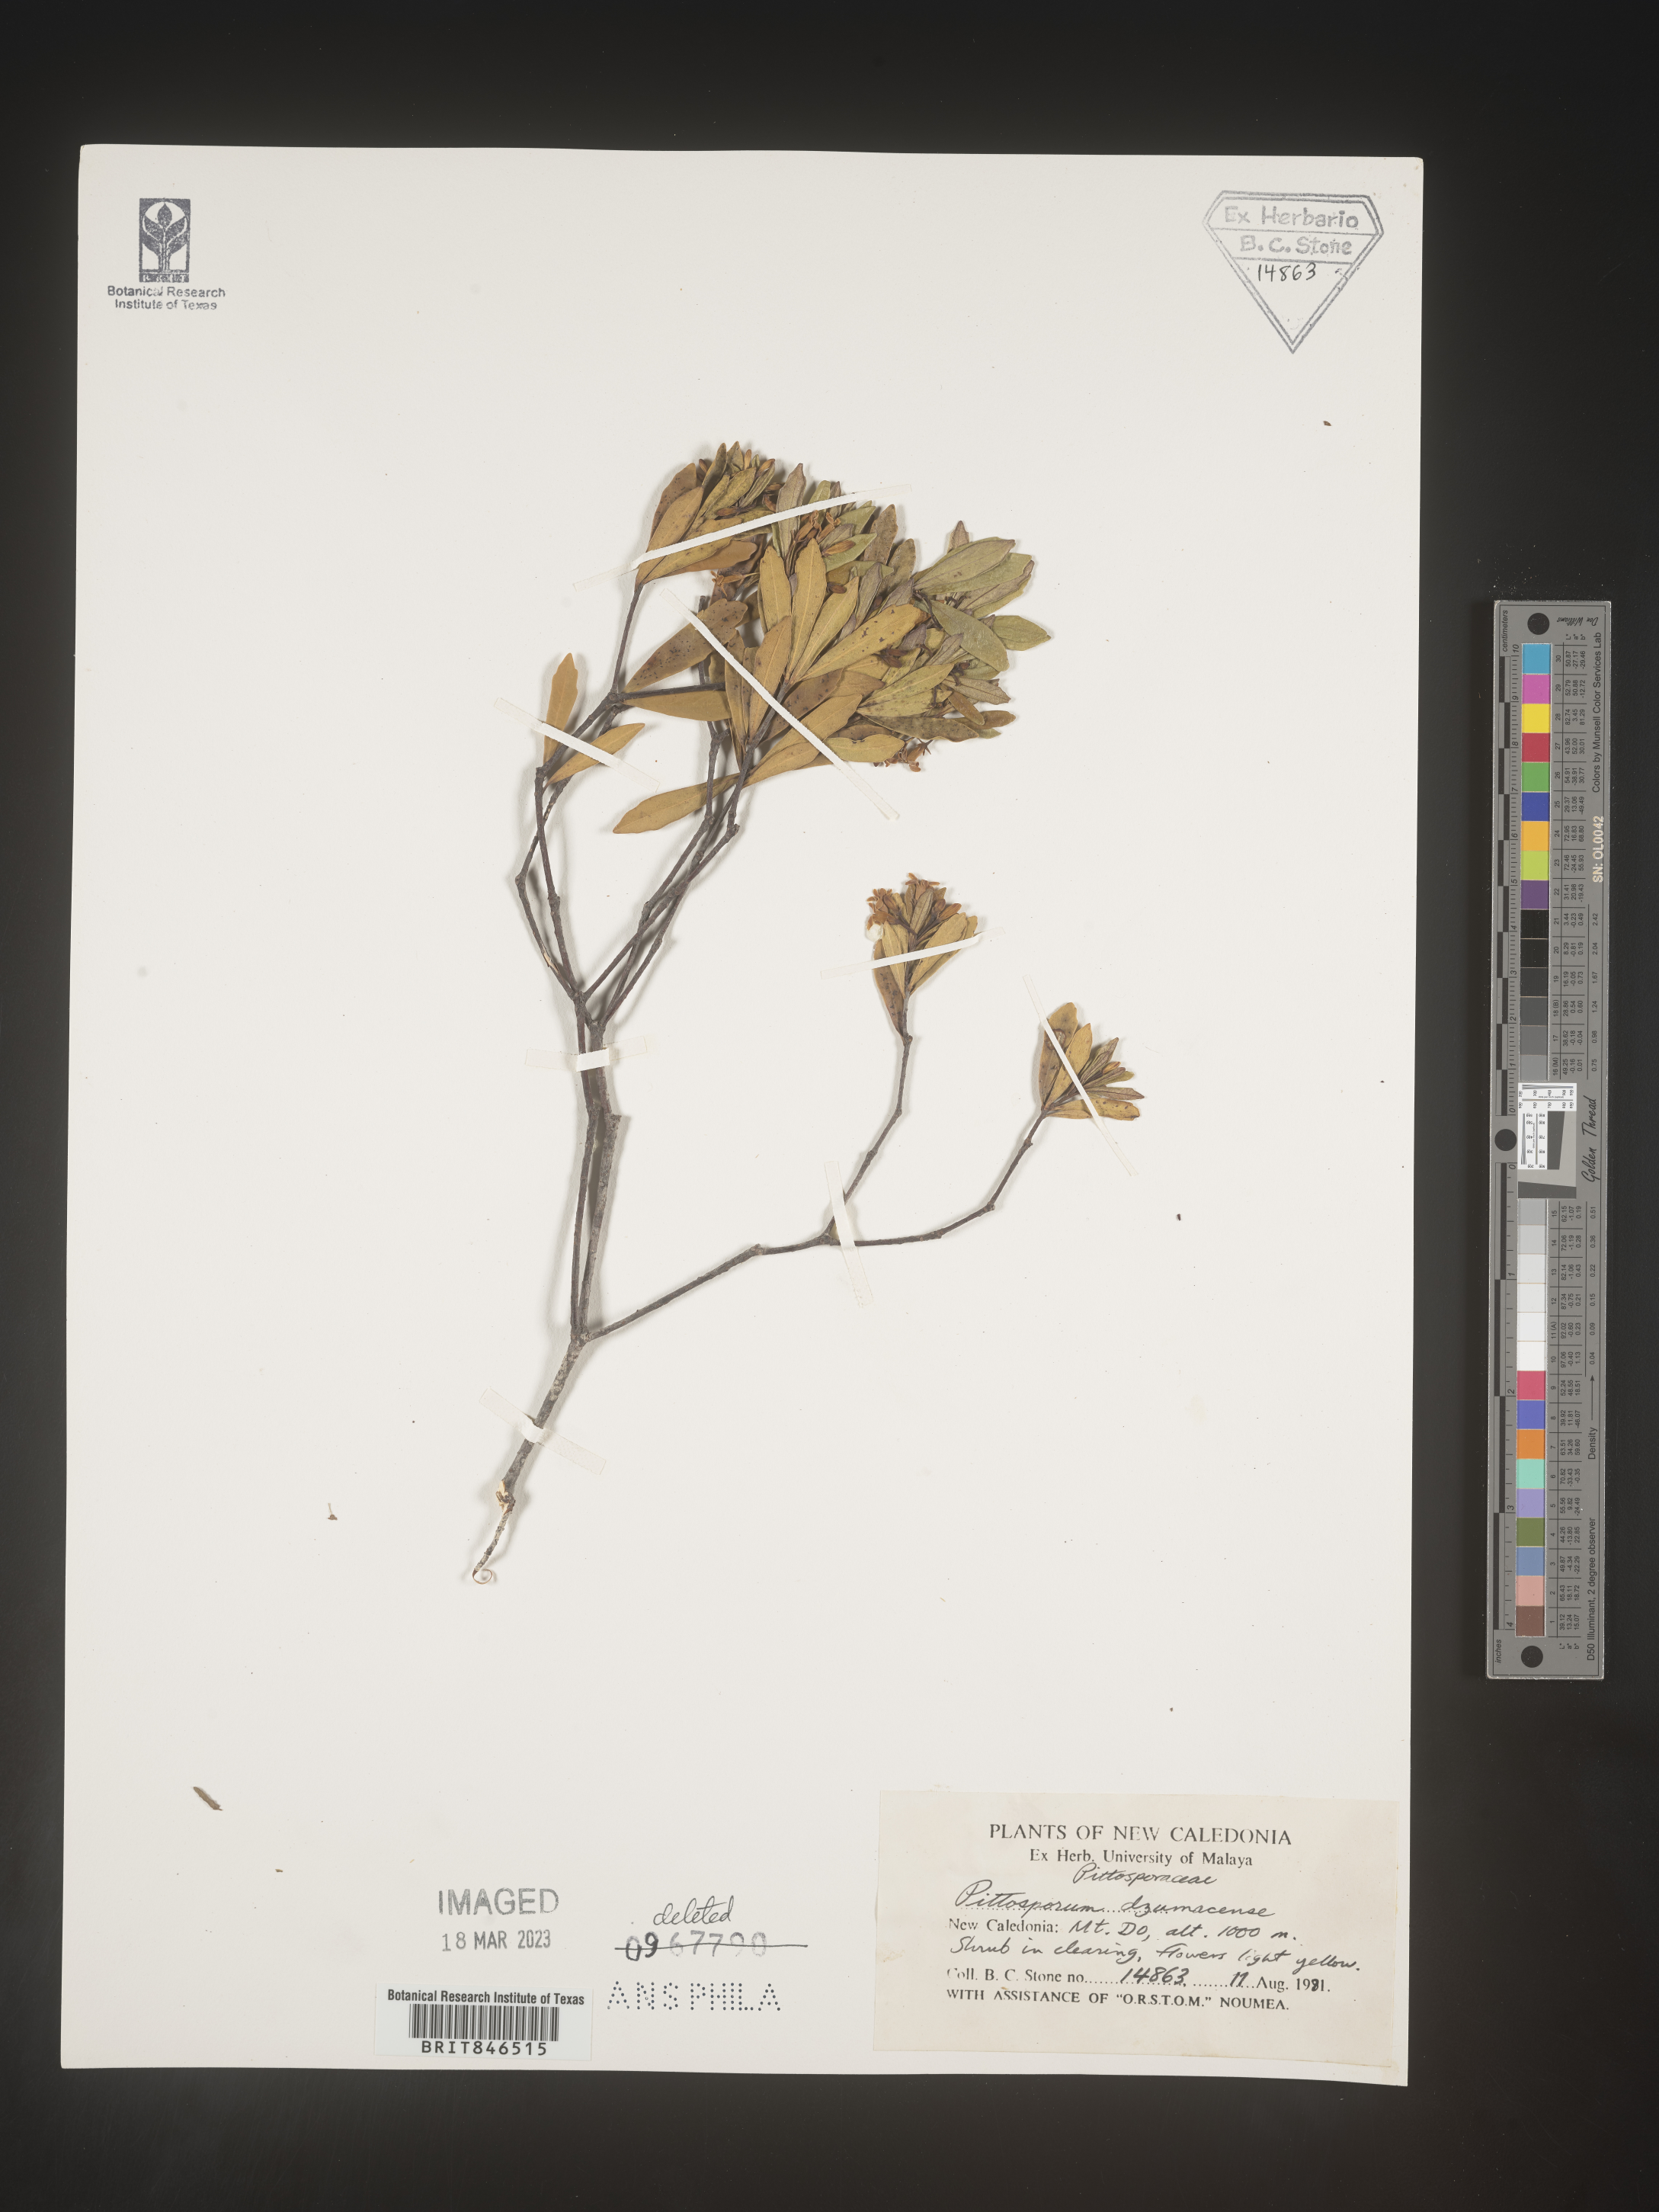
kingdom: Plantae
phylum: Tracheophyta
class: Magnoliopsida
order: Apiales
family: Pittosporaceae
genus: Pittosporum
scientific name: Pittosporum
